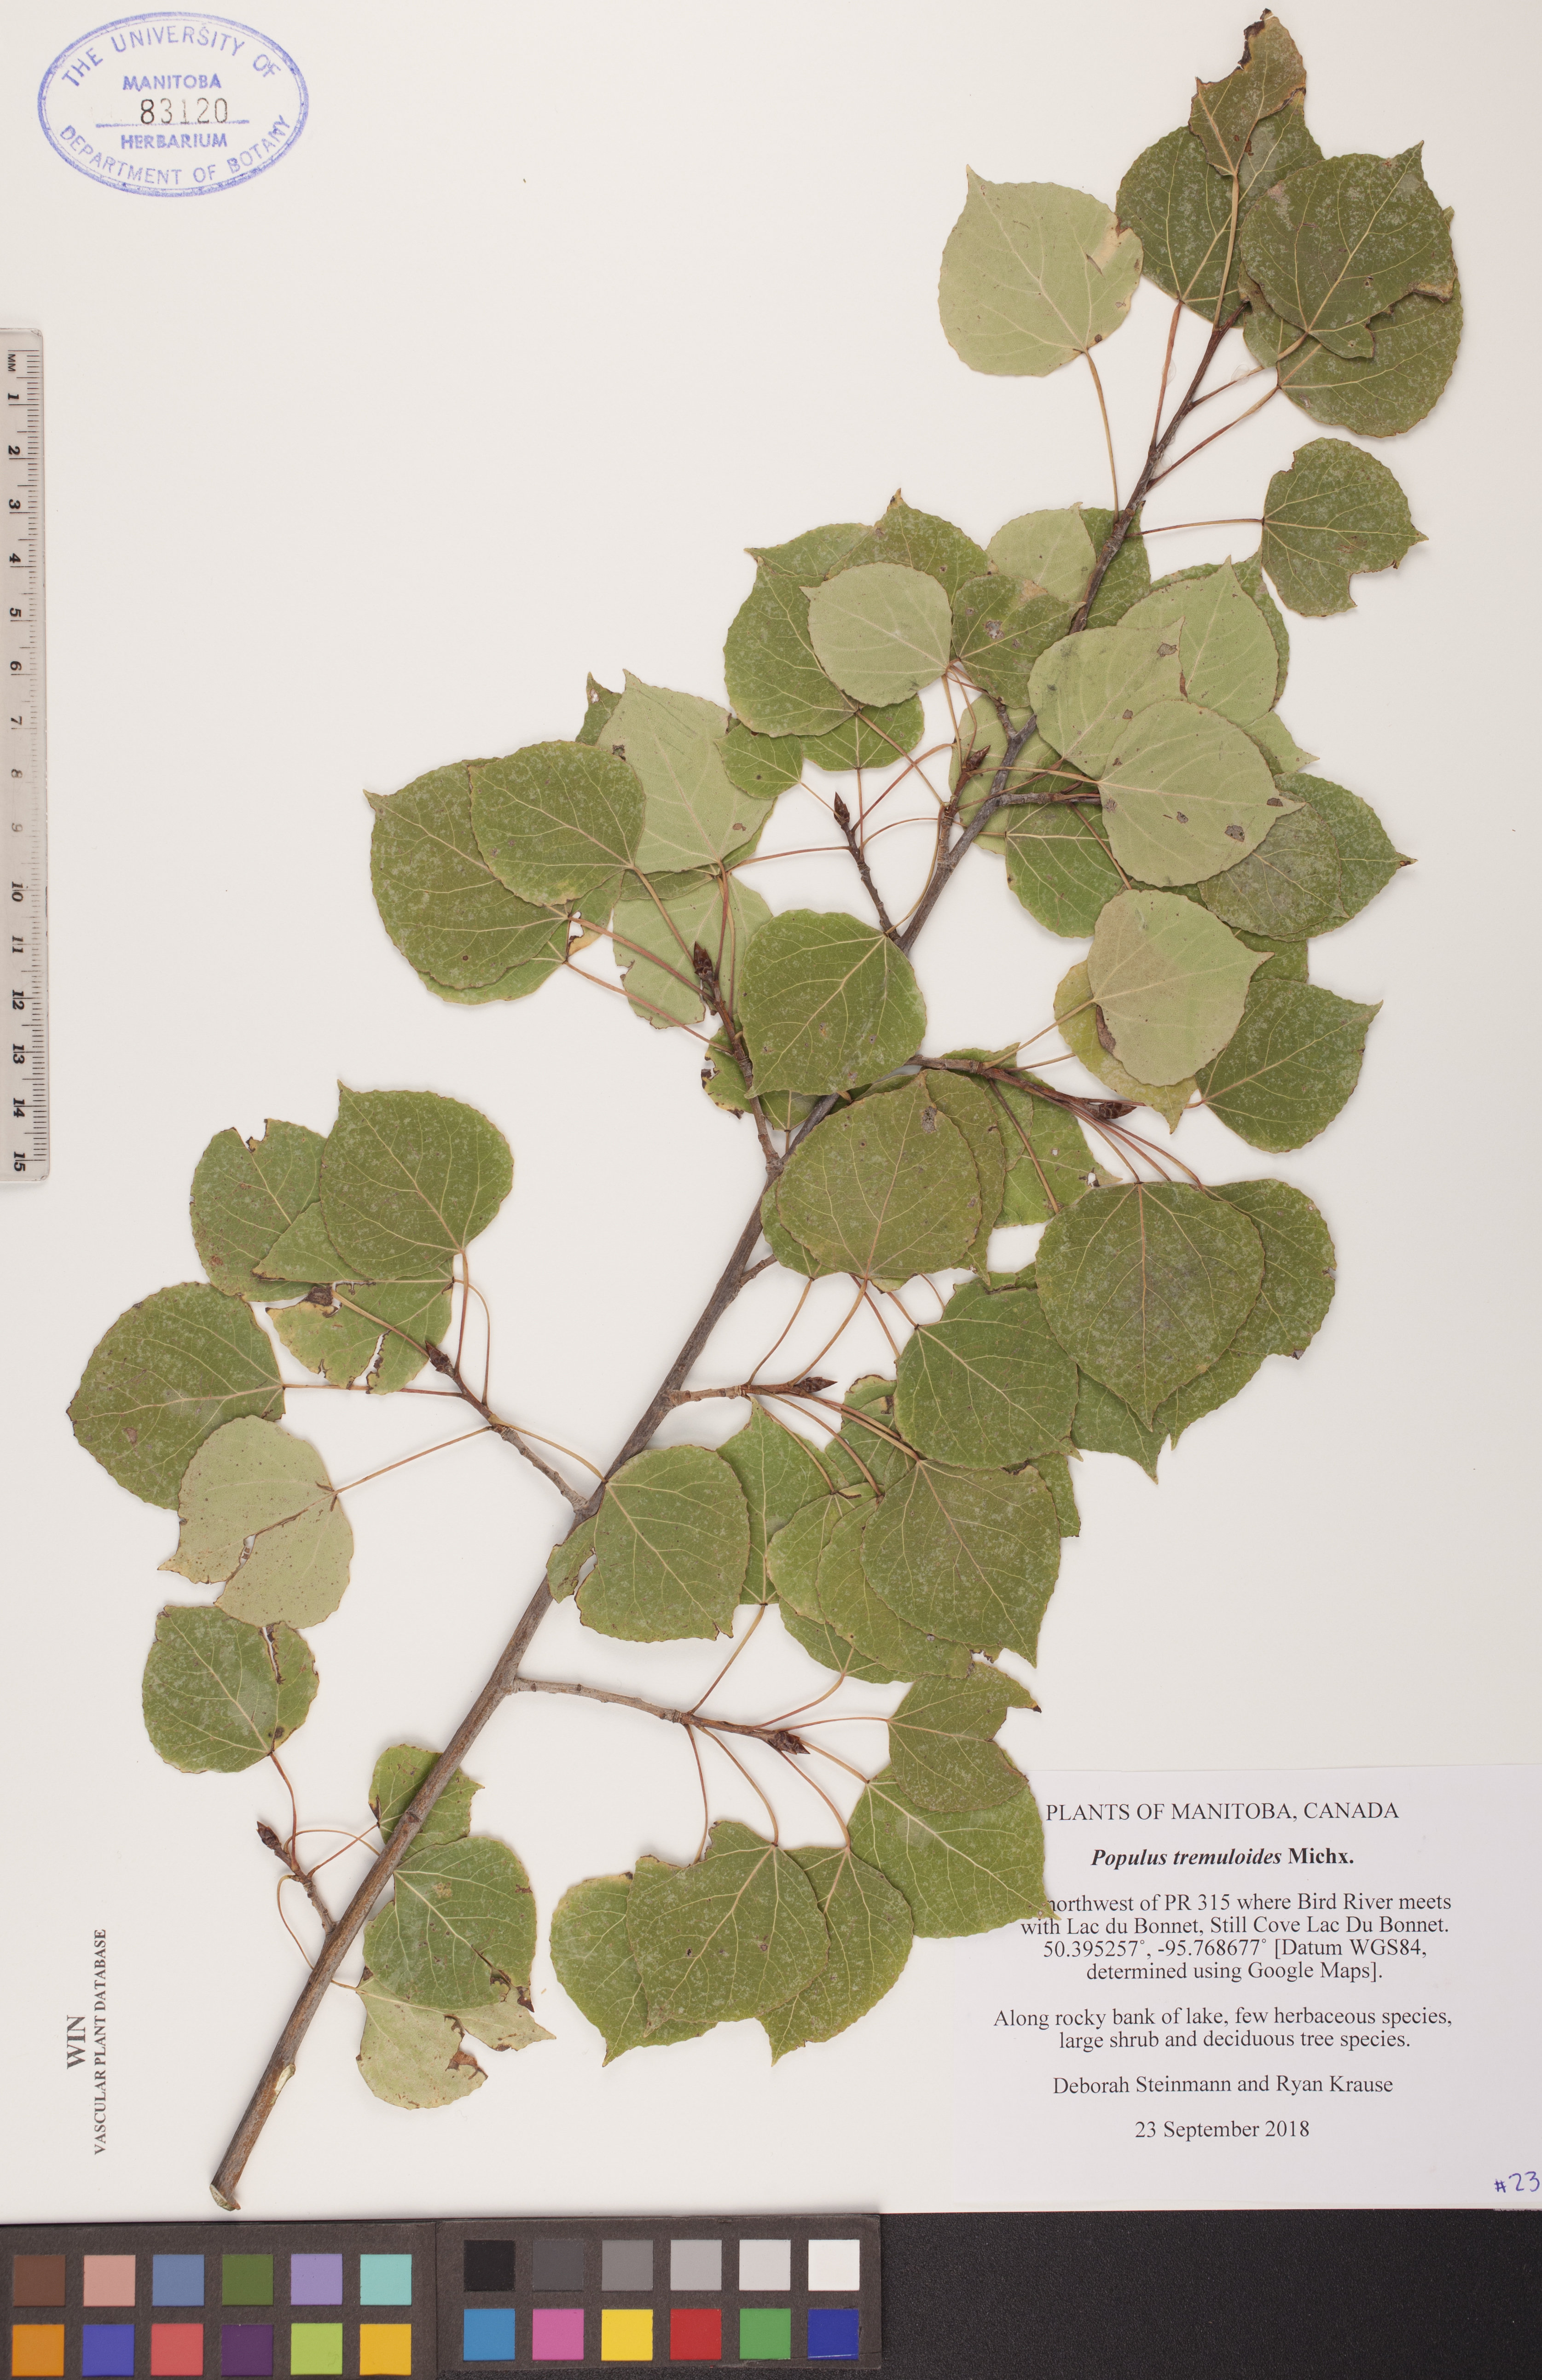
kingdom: Plantae
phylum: Tracheophyta
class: Magnoliopsida
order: Malpighiales
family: Salicaceae
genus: Populus
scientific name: Populus tremuloides
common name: Quaking aspen
